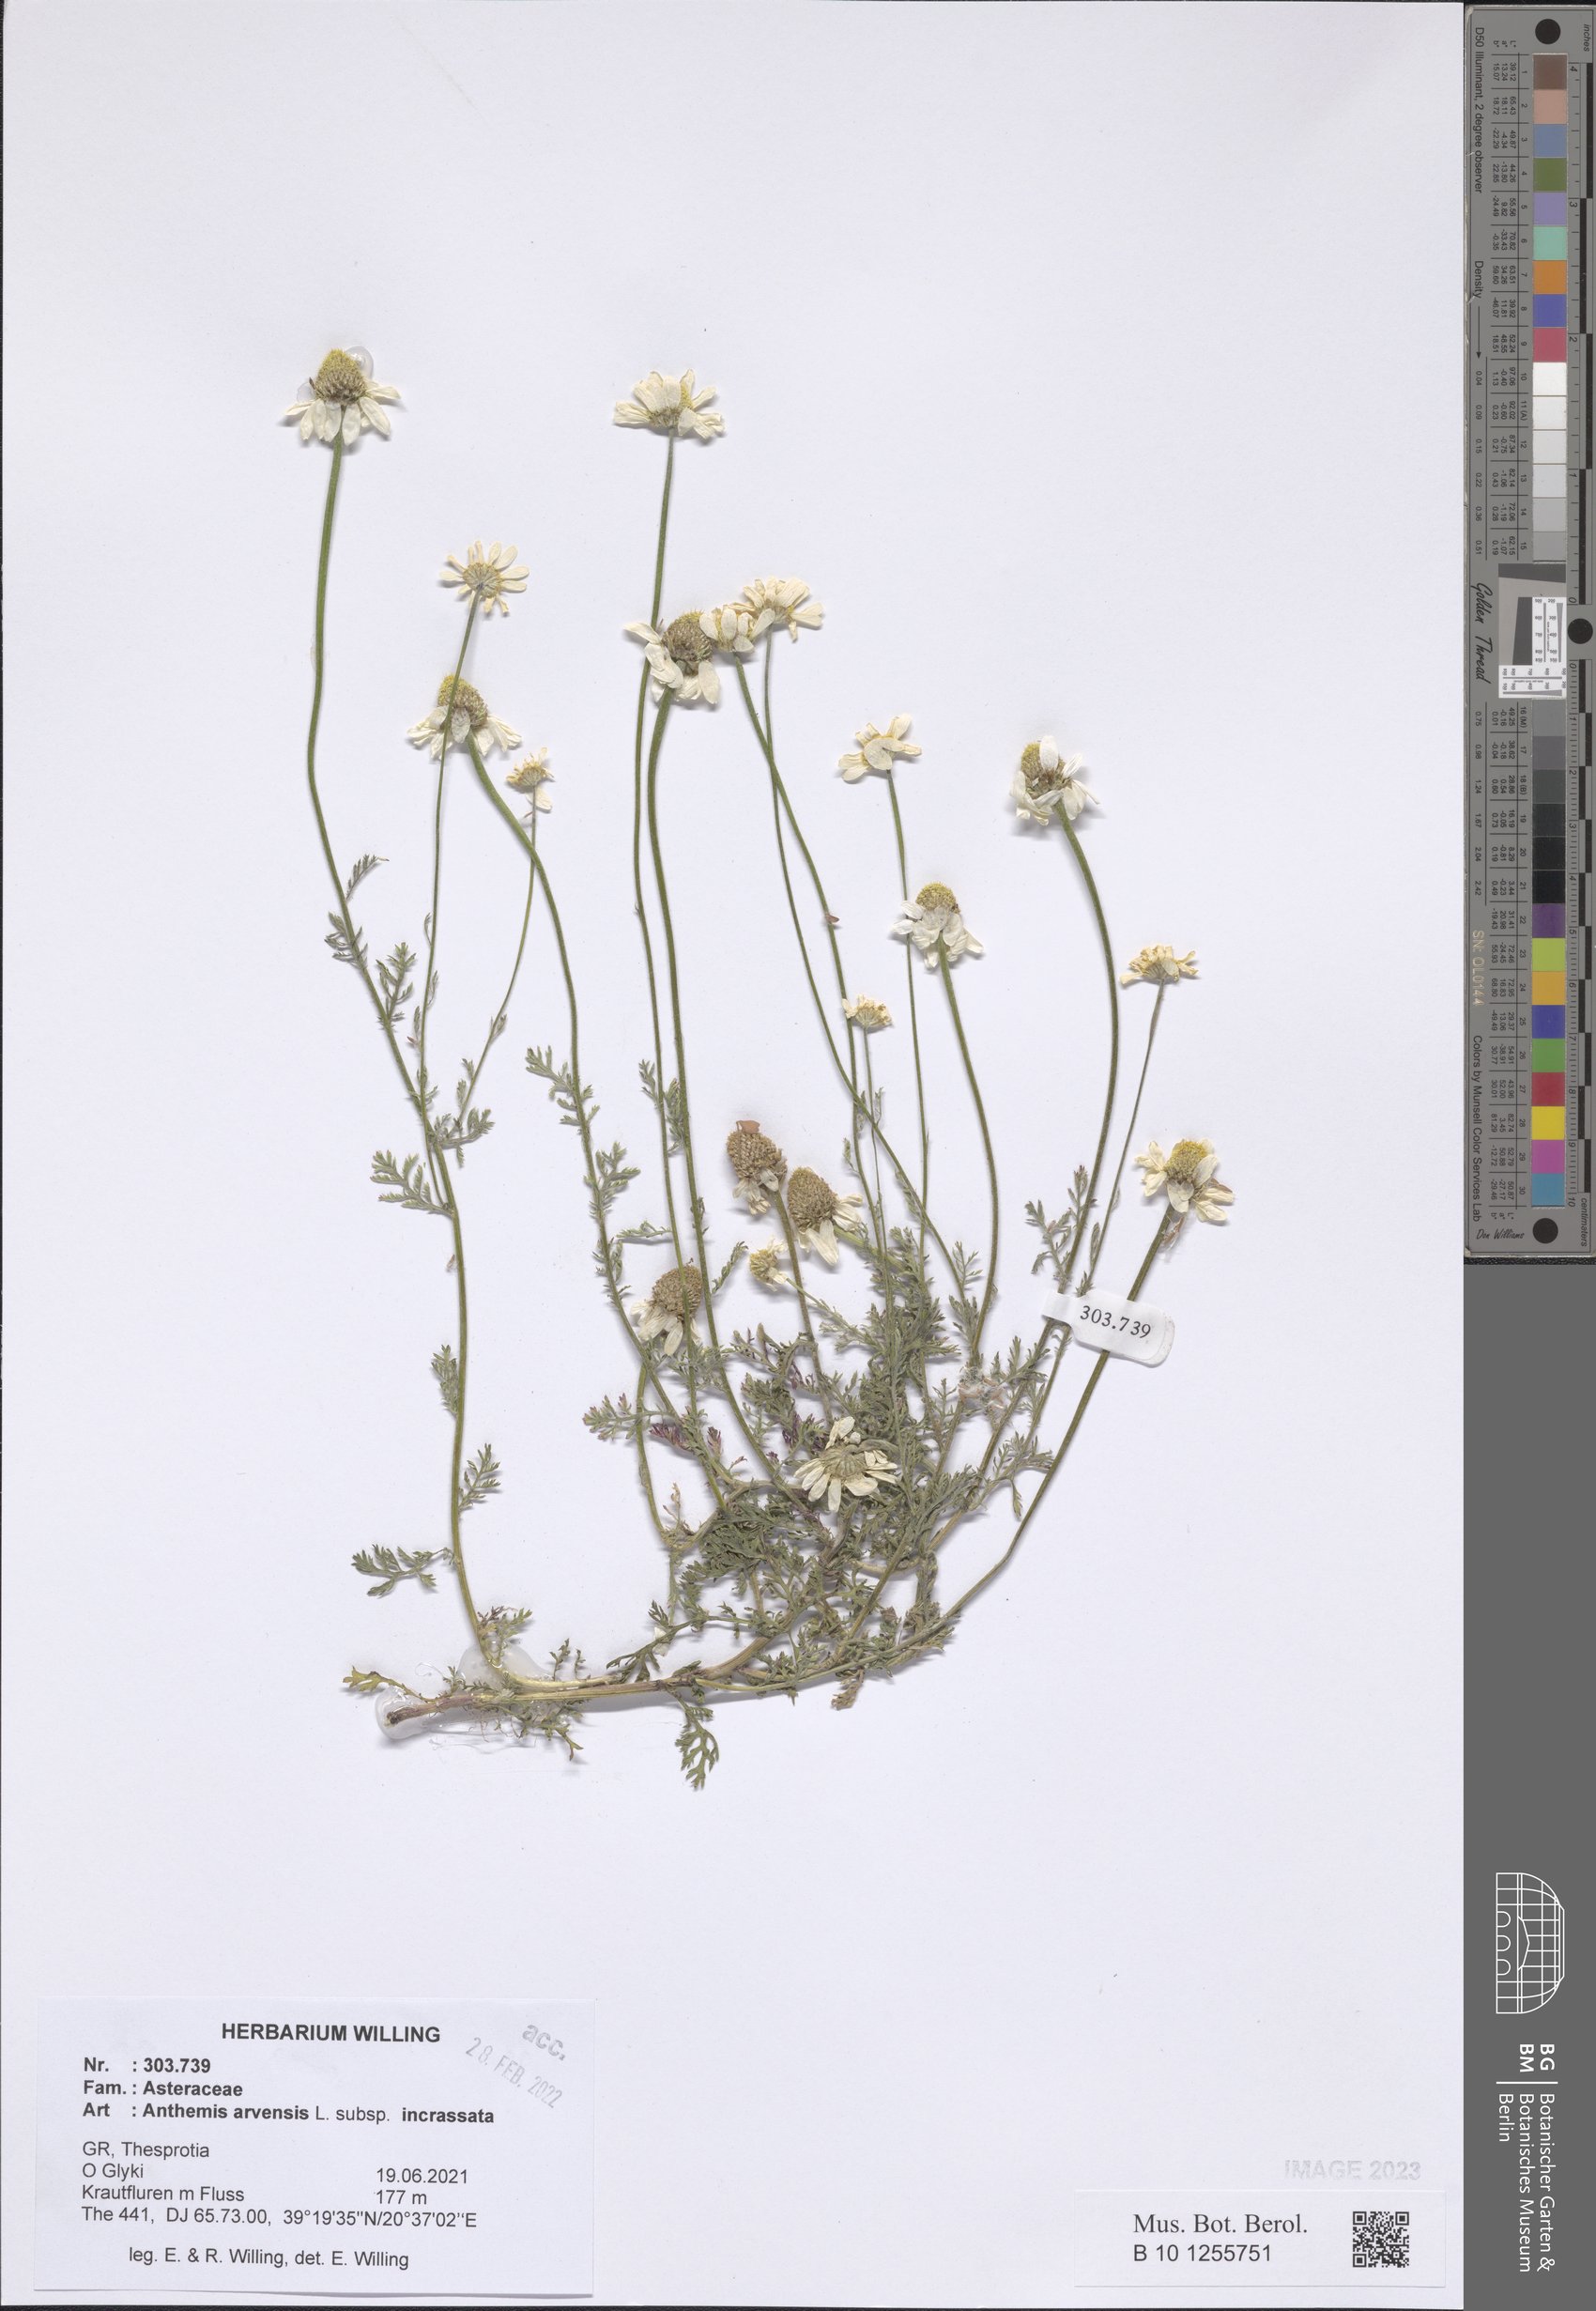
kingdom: Plantae
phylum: Tracheophyta
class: Magnoliopsida
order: Asterales
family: Asteraceae
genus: Anthemis
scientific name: Anthemis arvensis
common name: Corn chamomile
